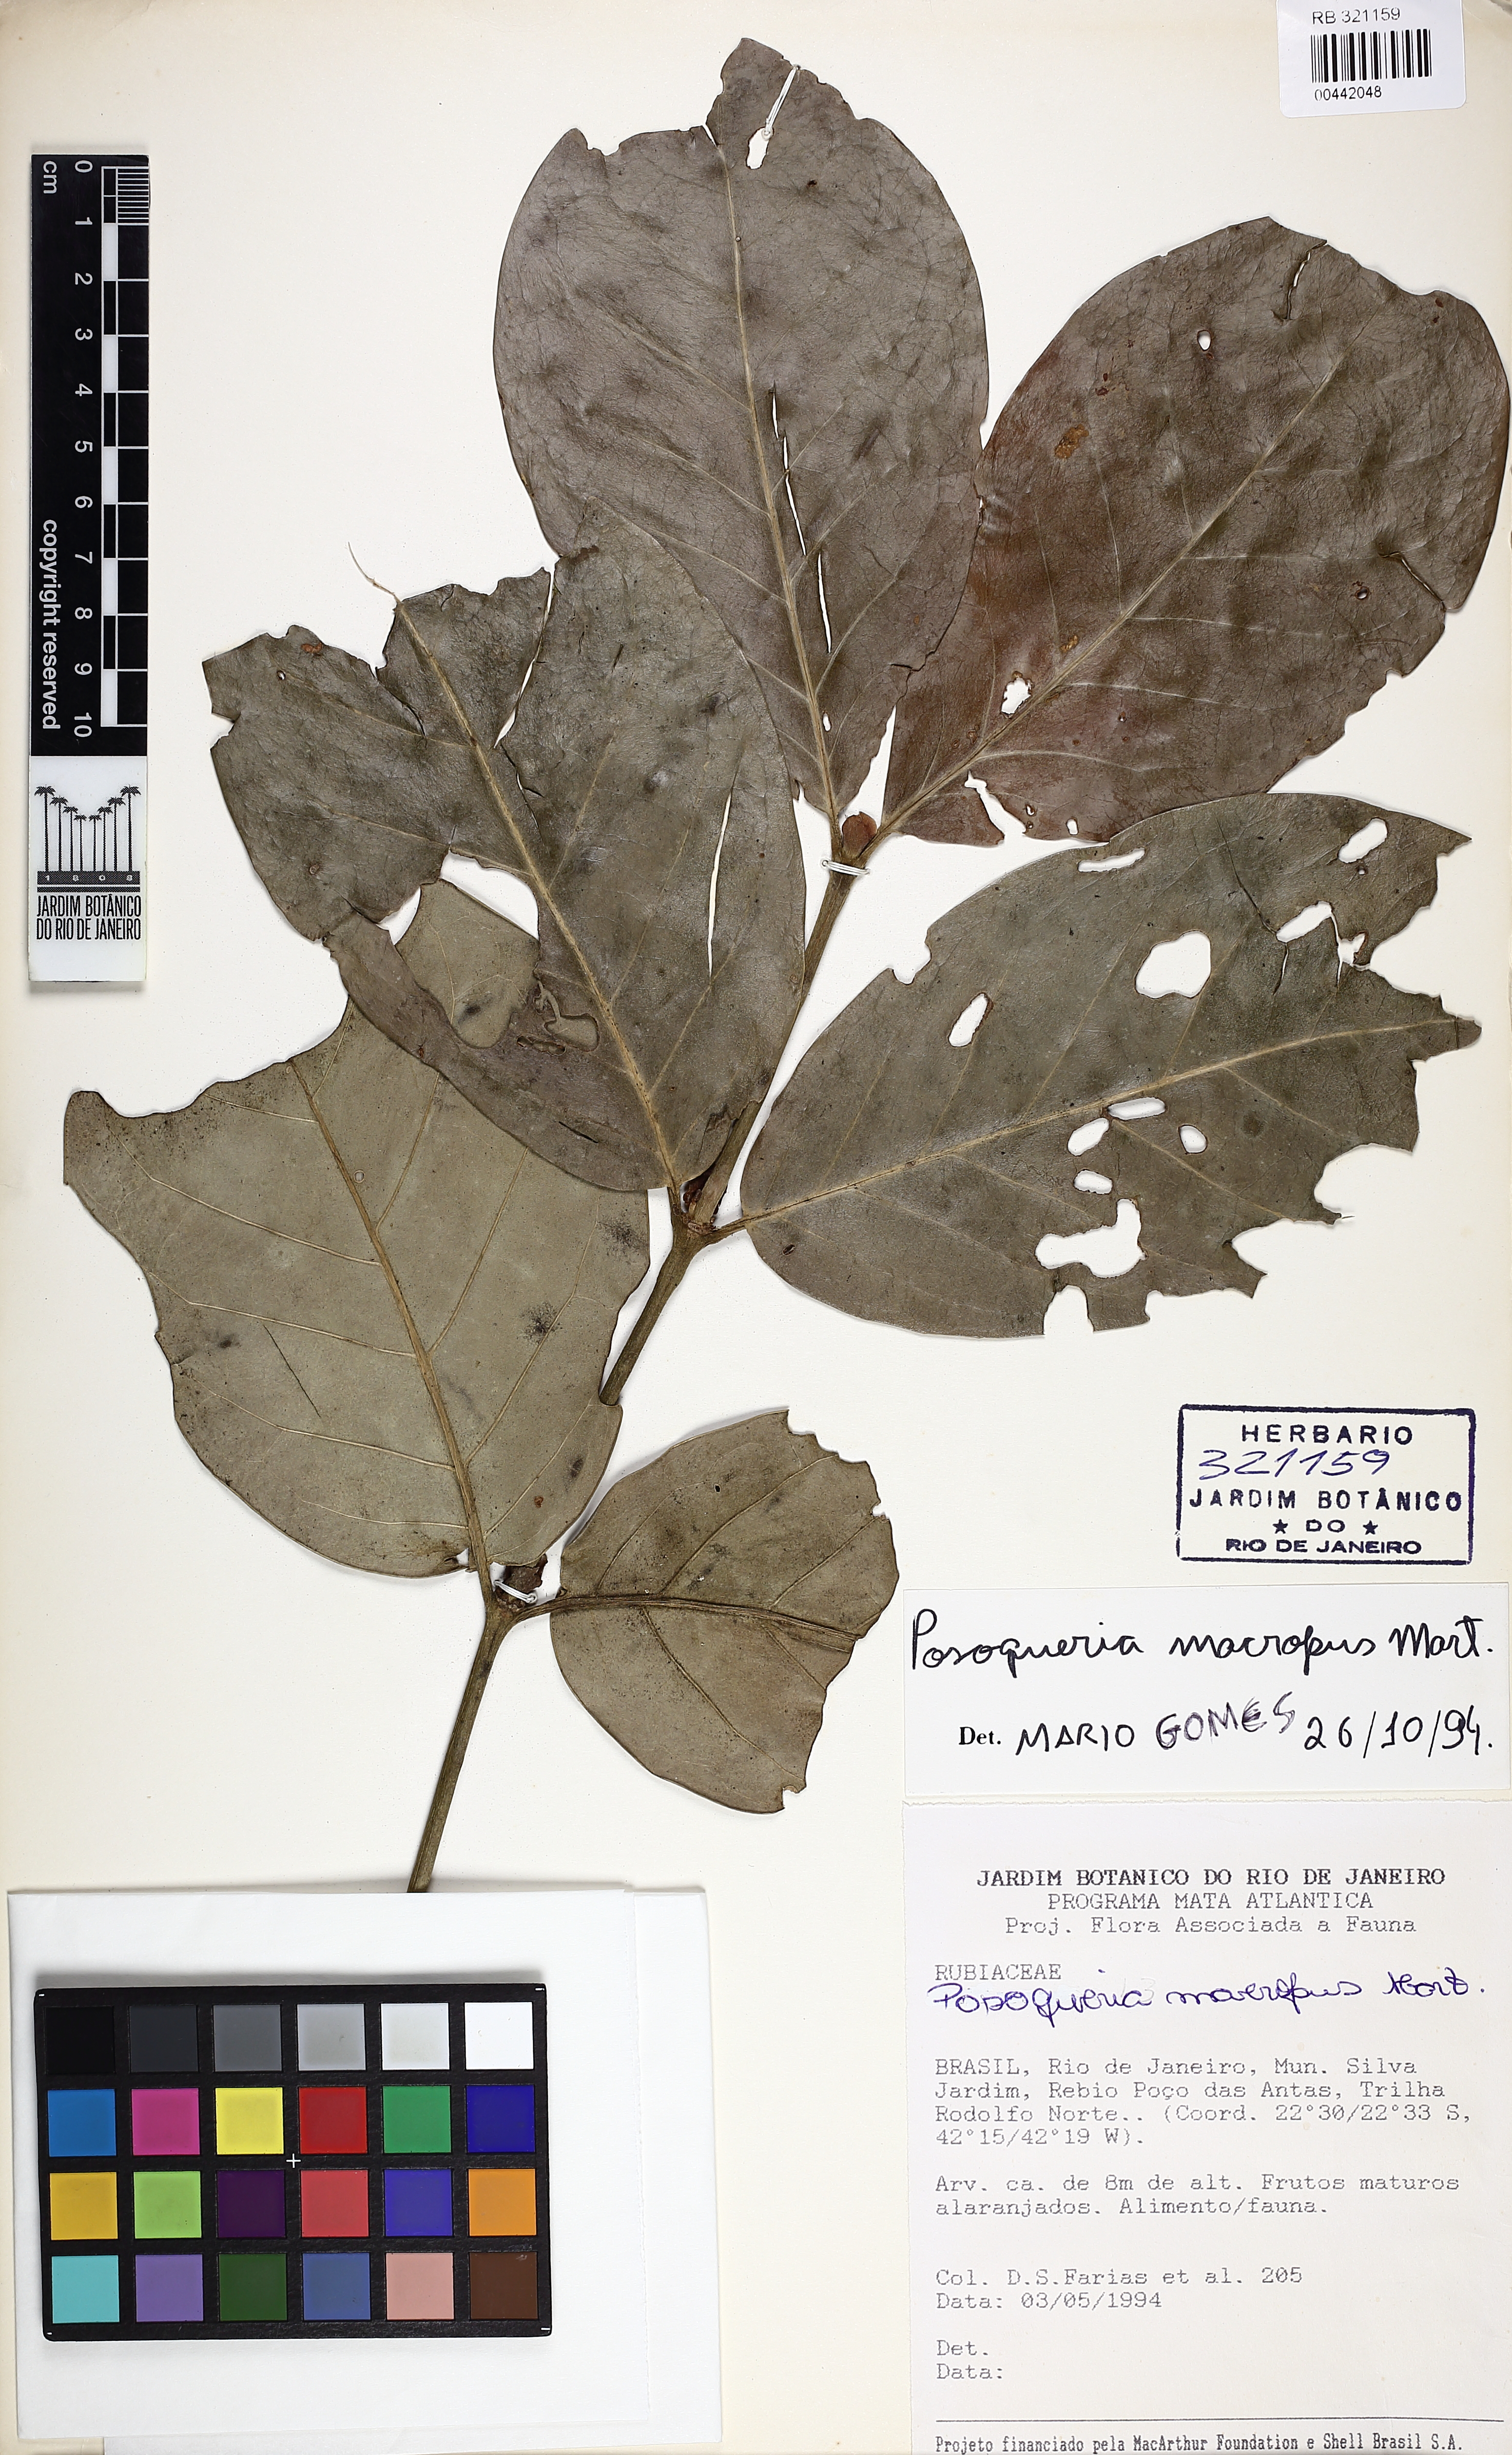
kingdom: Plantae
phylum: Tracheophyta
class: Magnoliopsida
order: Gentianales
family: Rubiaceae
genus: Posoqueria
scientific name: Posoqueria latifolia
